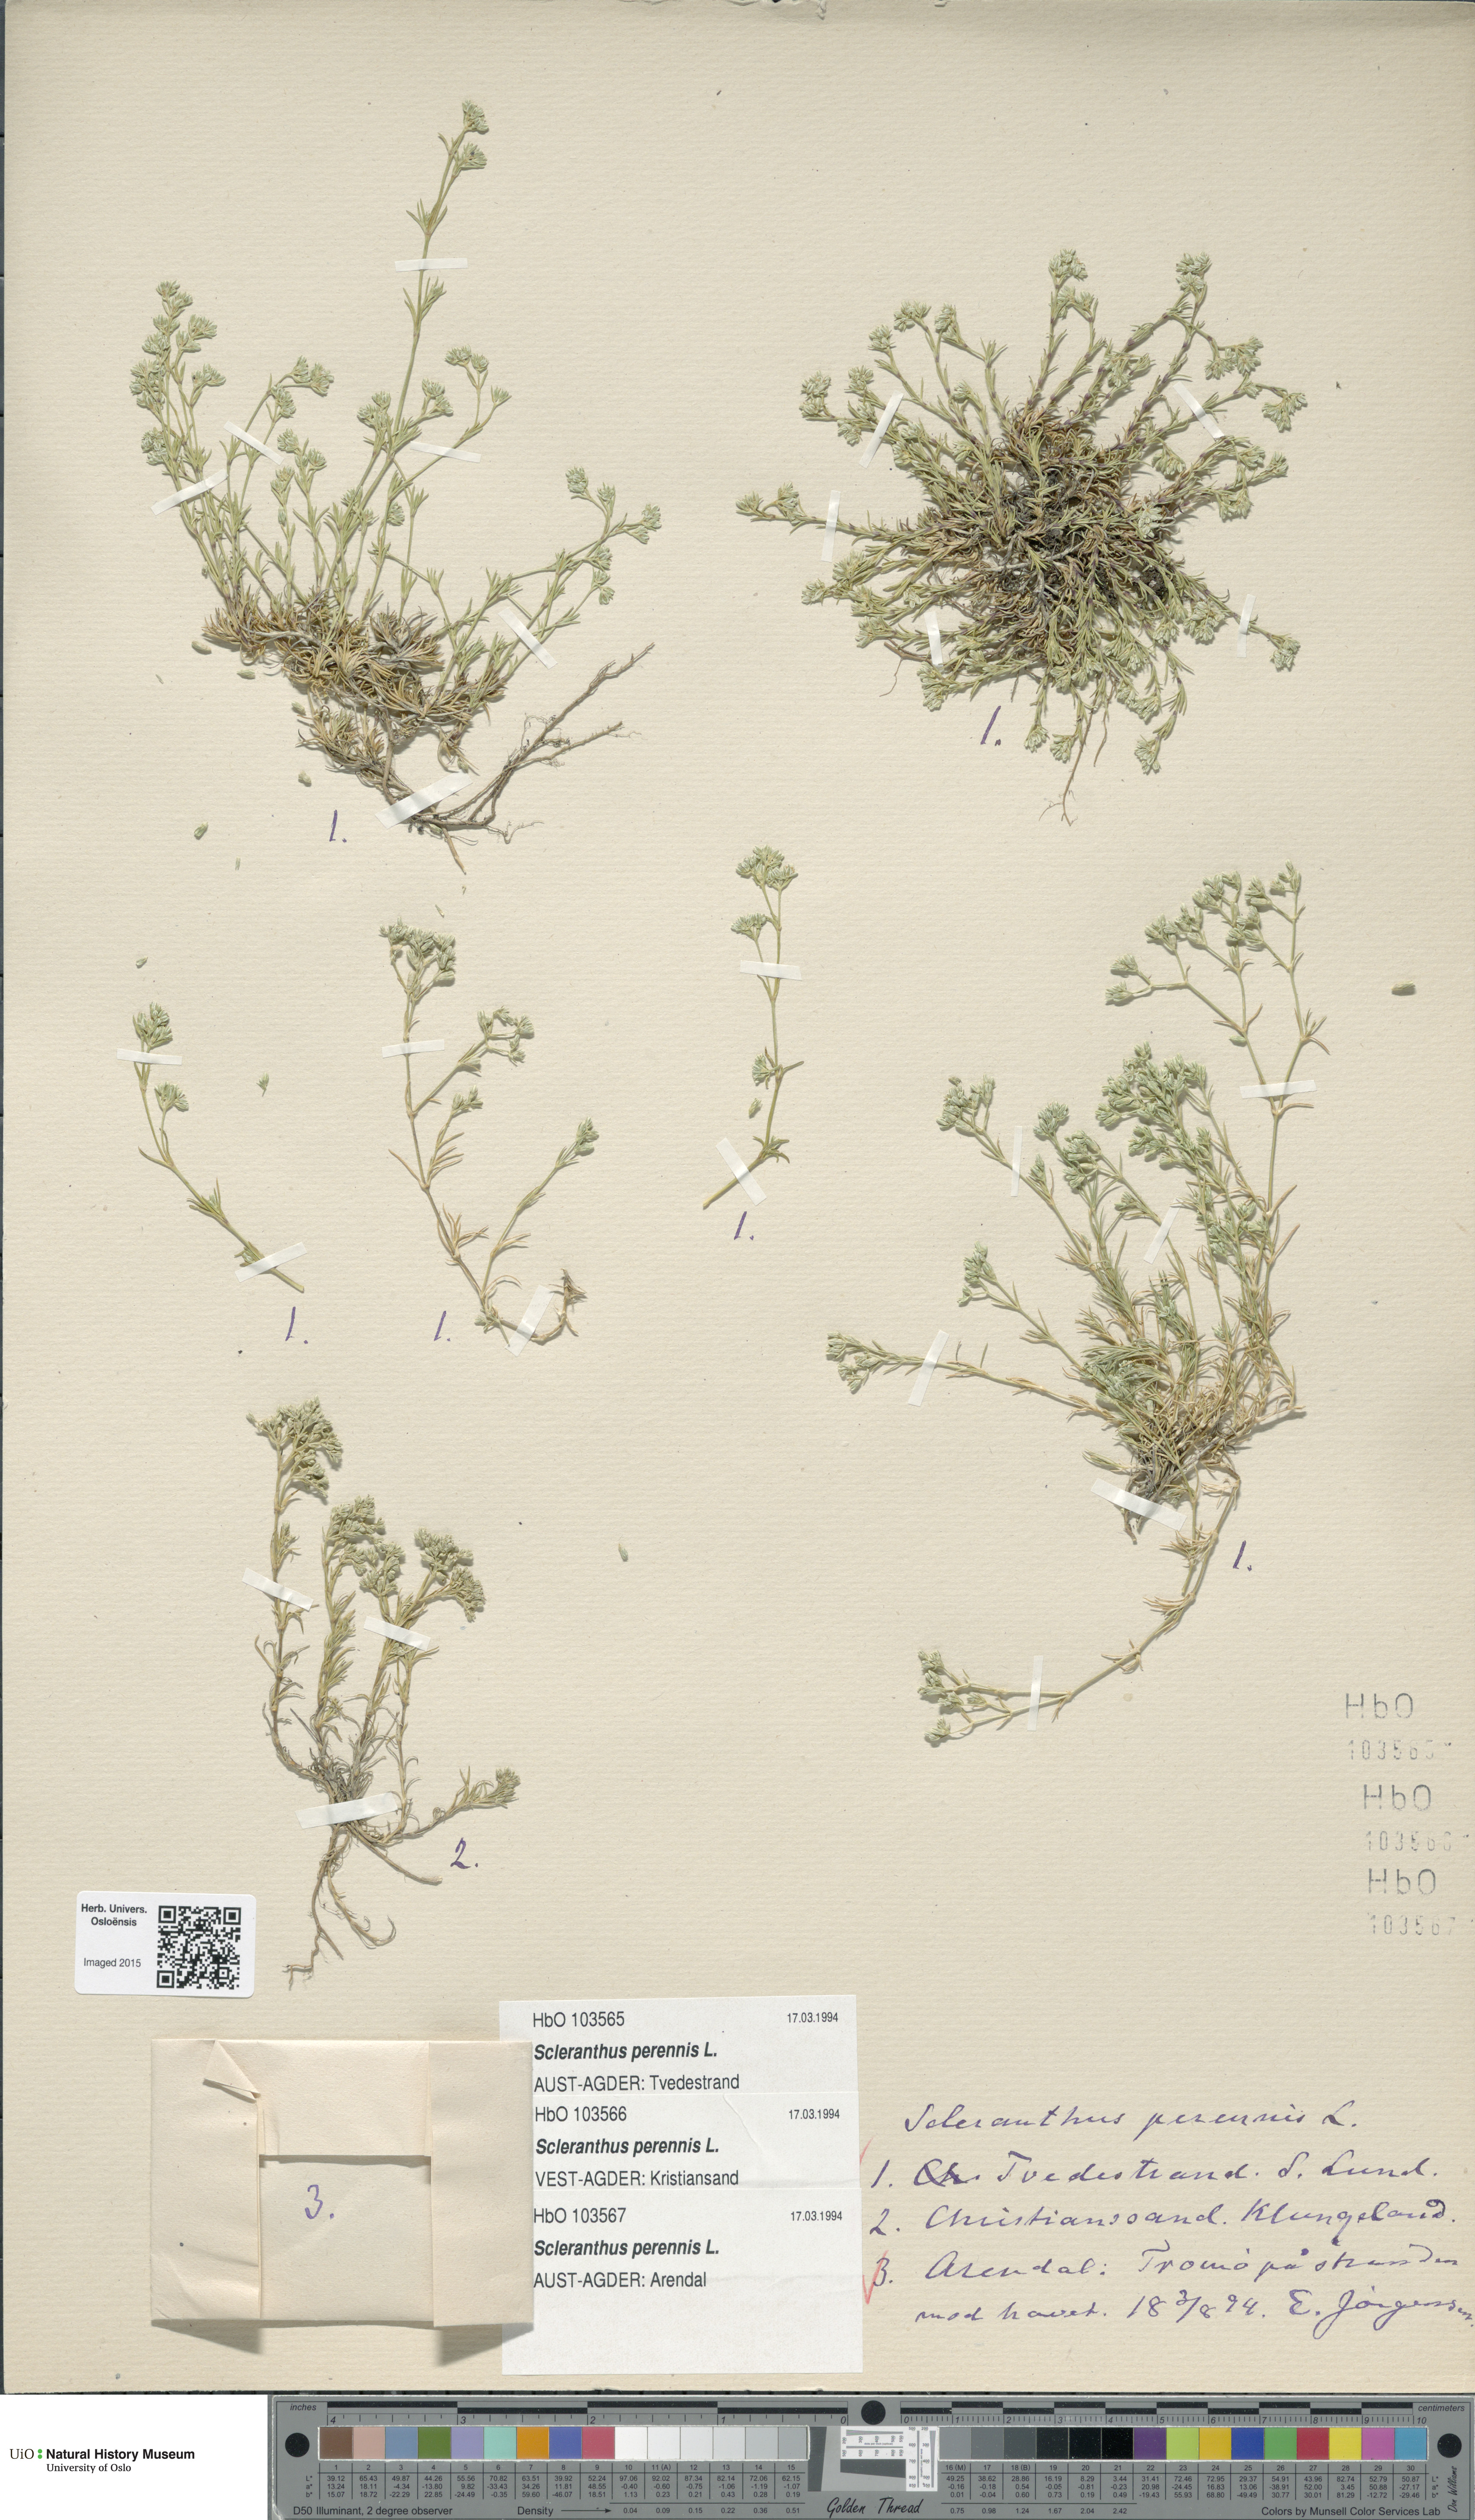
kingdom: Plantae
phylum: Tracheophyta
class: Magnoliopsida
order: Caryophyllales
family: Caryophyllaceae
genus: Scleranthus
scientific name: Scleranthus perennis
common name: Perennial knawel
